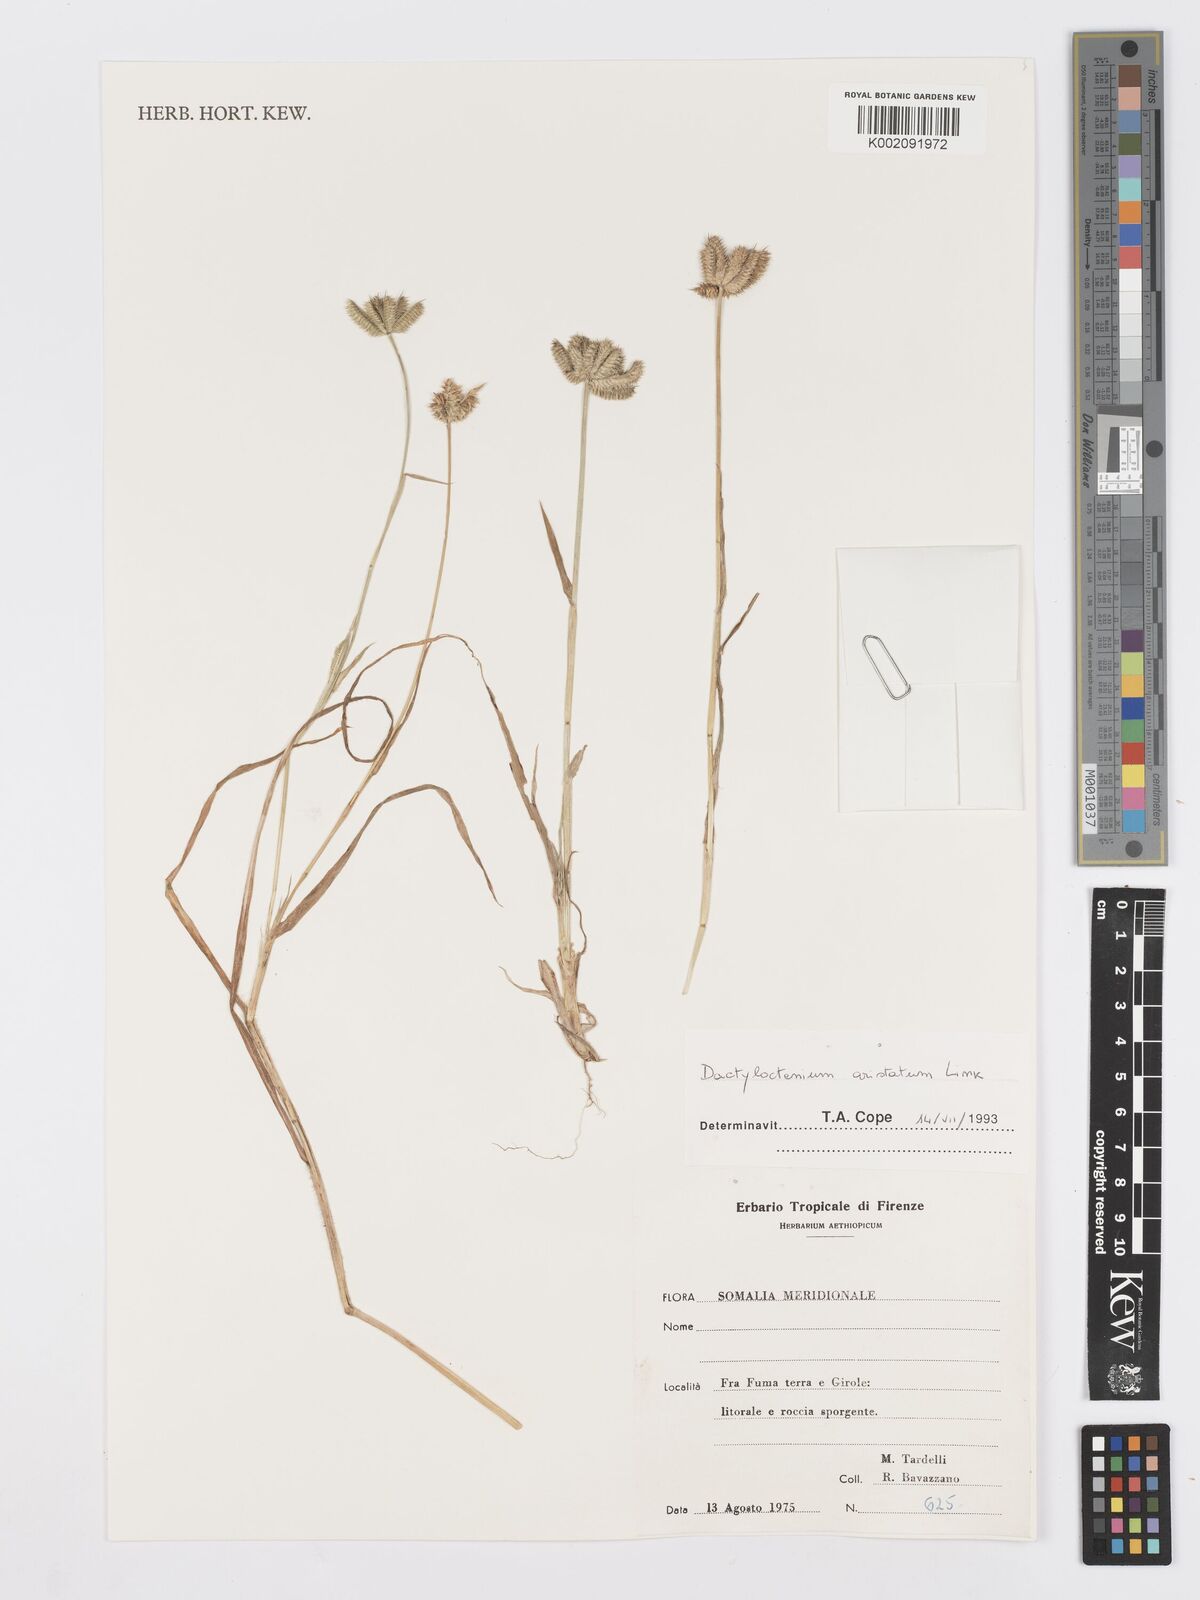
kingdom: Plantae
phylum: Tracheophyta
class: Liliopsida
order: Poales
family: Poaceae
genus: Dactyloctenium
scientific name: Dactyloctenium aristatum
